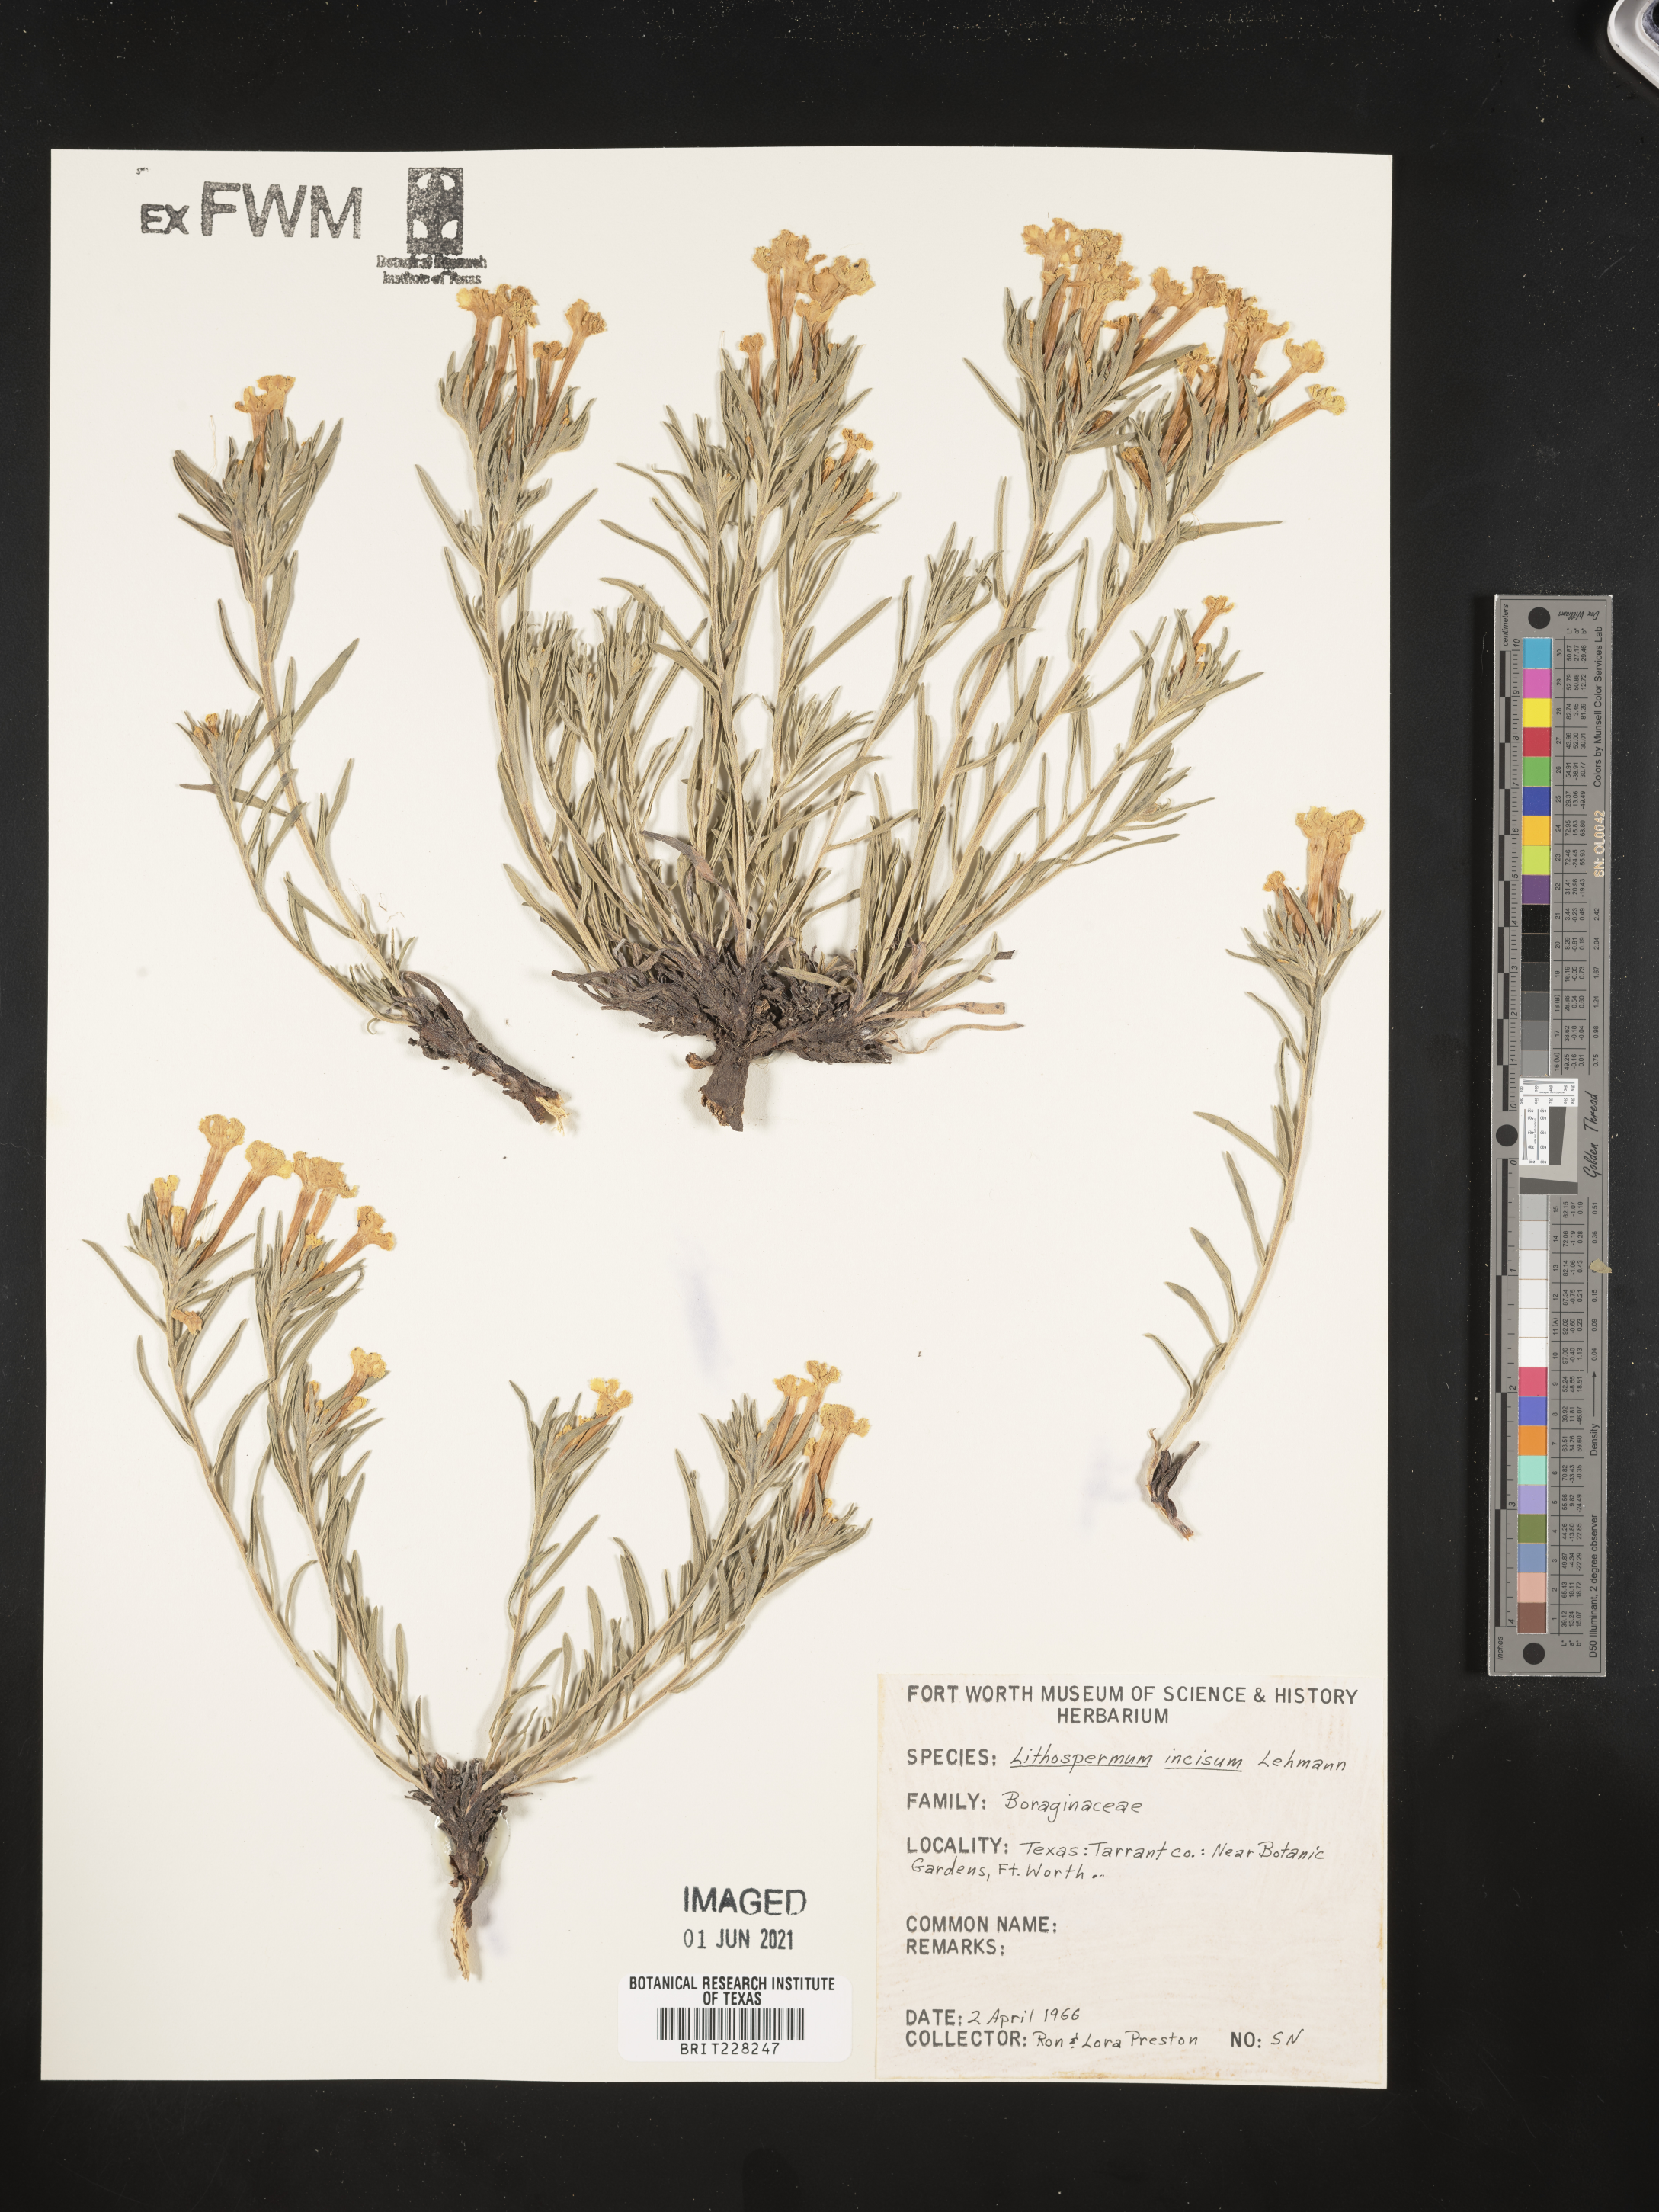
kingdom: Plantae
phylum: Tracheophyta
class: Magnoliopsida
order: Boraginales
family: Boraginaceae
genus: Lithospermum
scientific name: Lithospermum incisum
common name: Fringed gromwell
